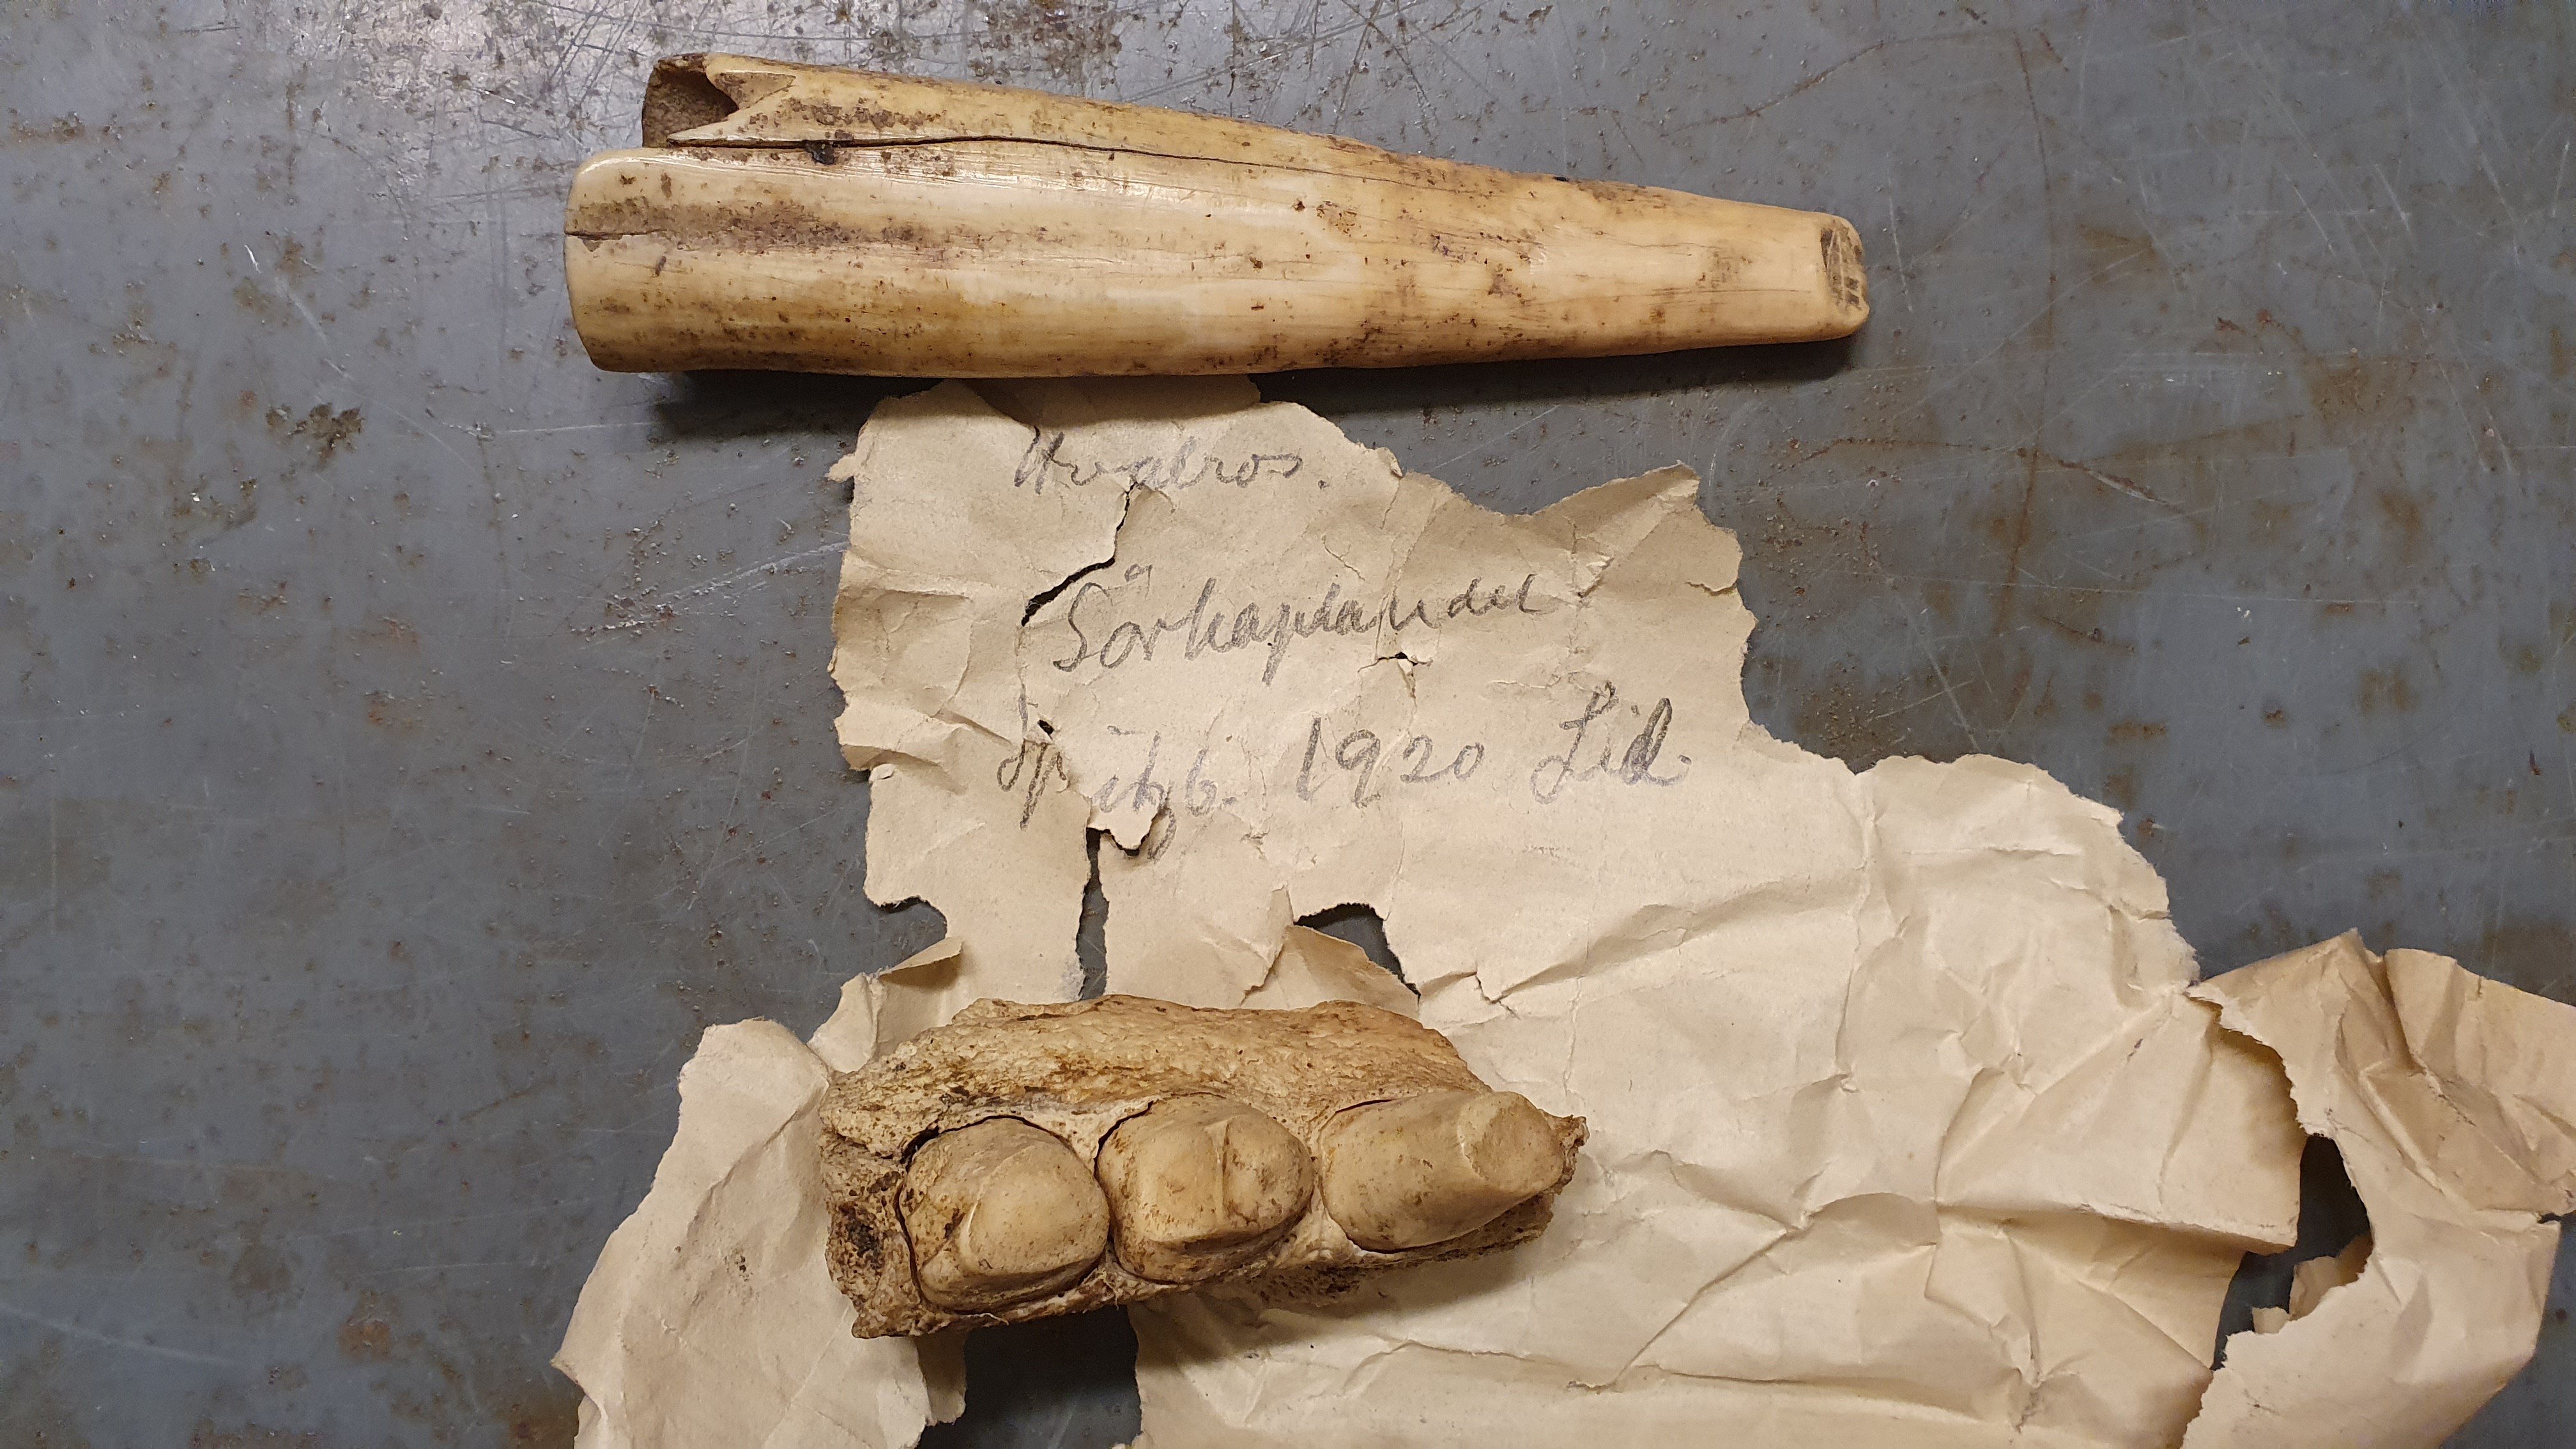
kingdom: Animalia
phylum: Chordata
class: Mammalia
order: Carnivora
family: Odobenidae
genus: Odobenus
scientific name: Odobenus rosmarus
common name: Walrus
